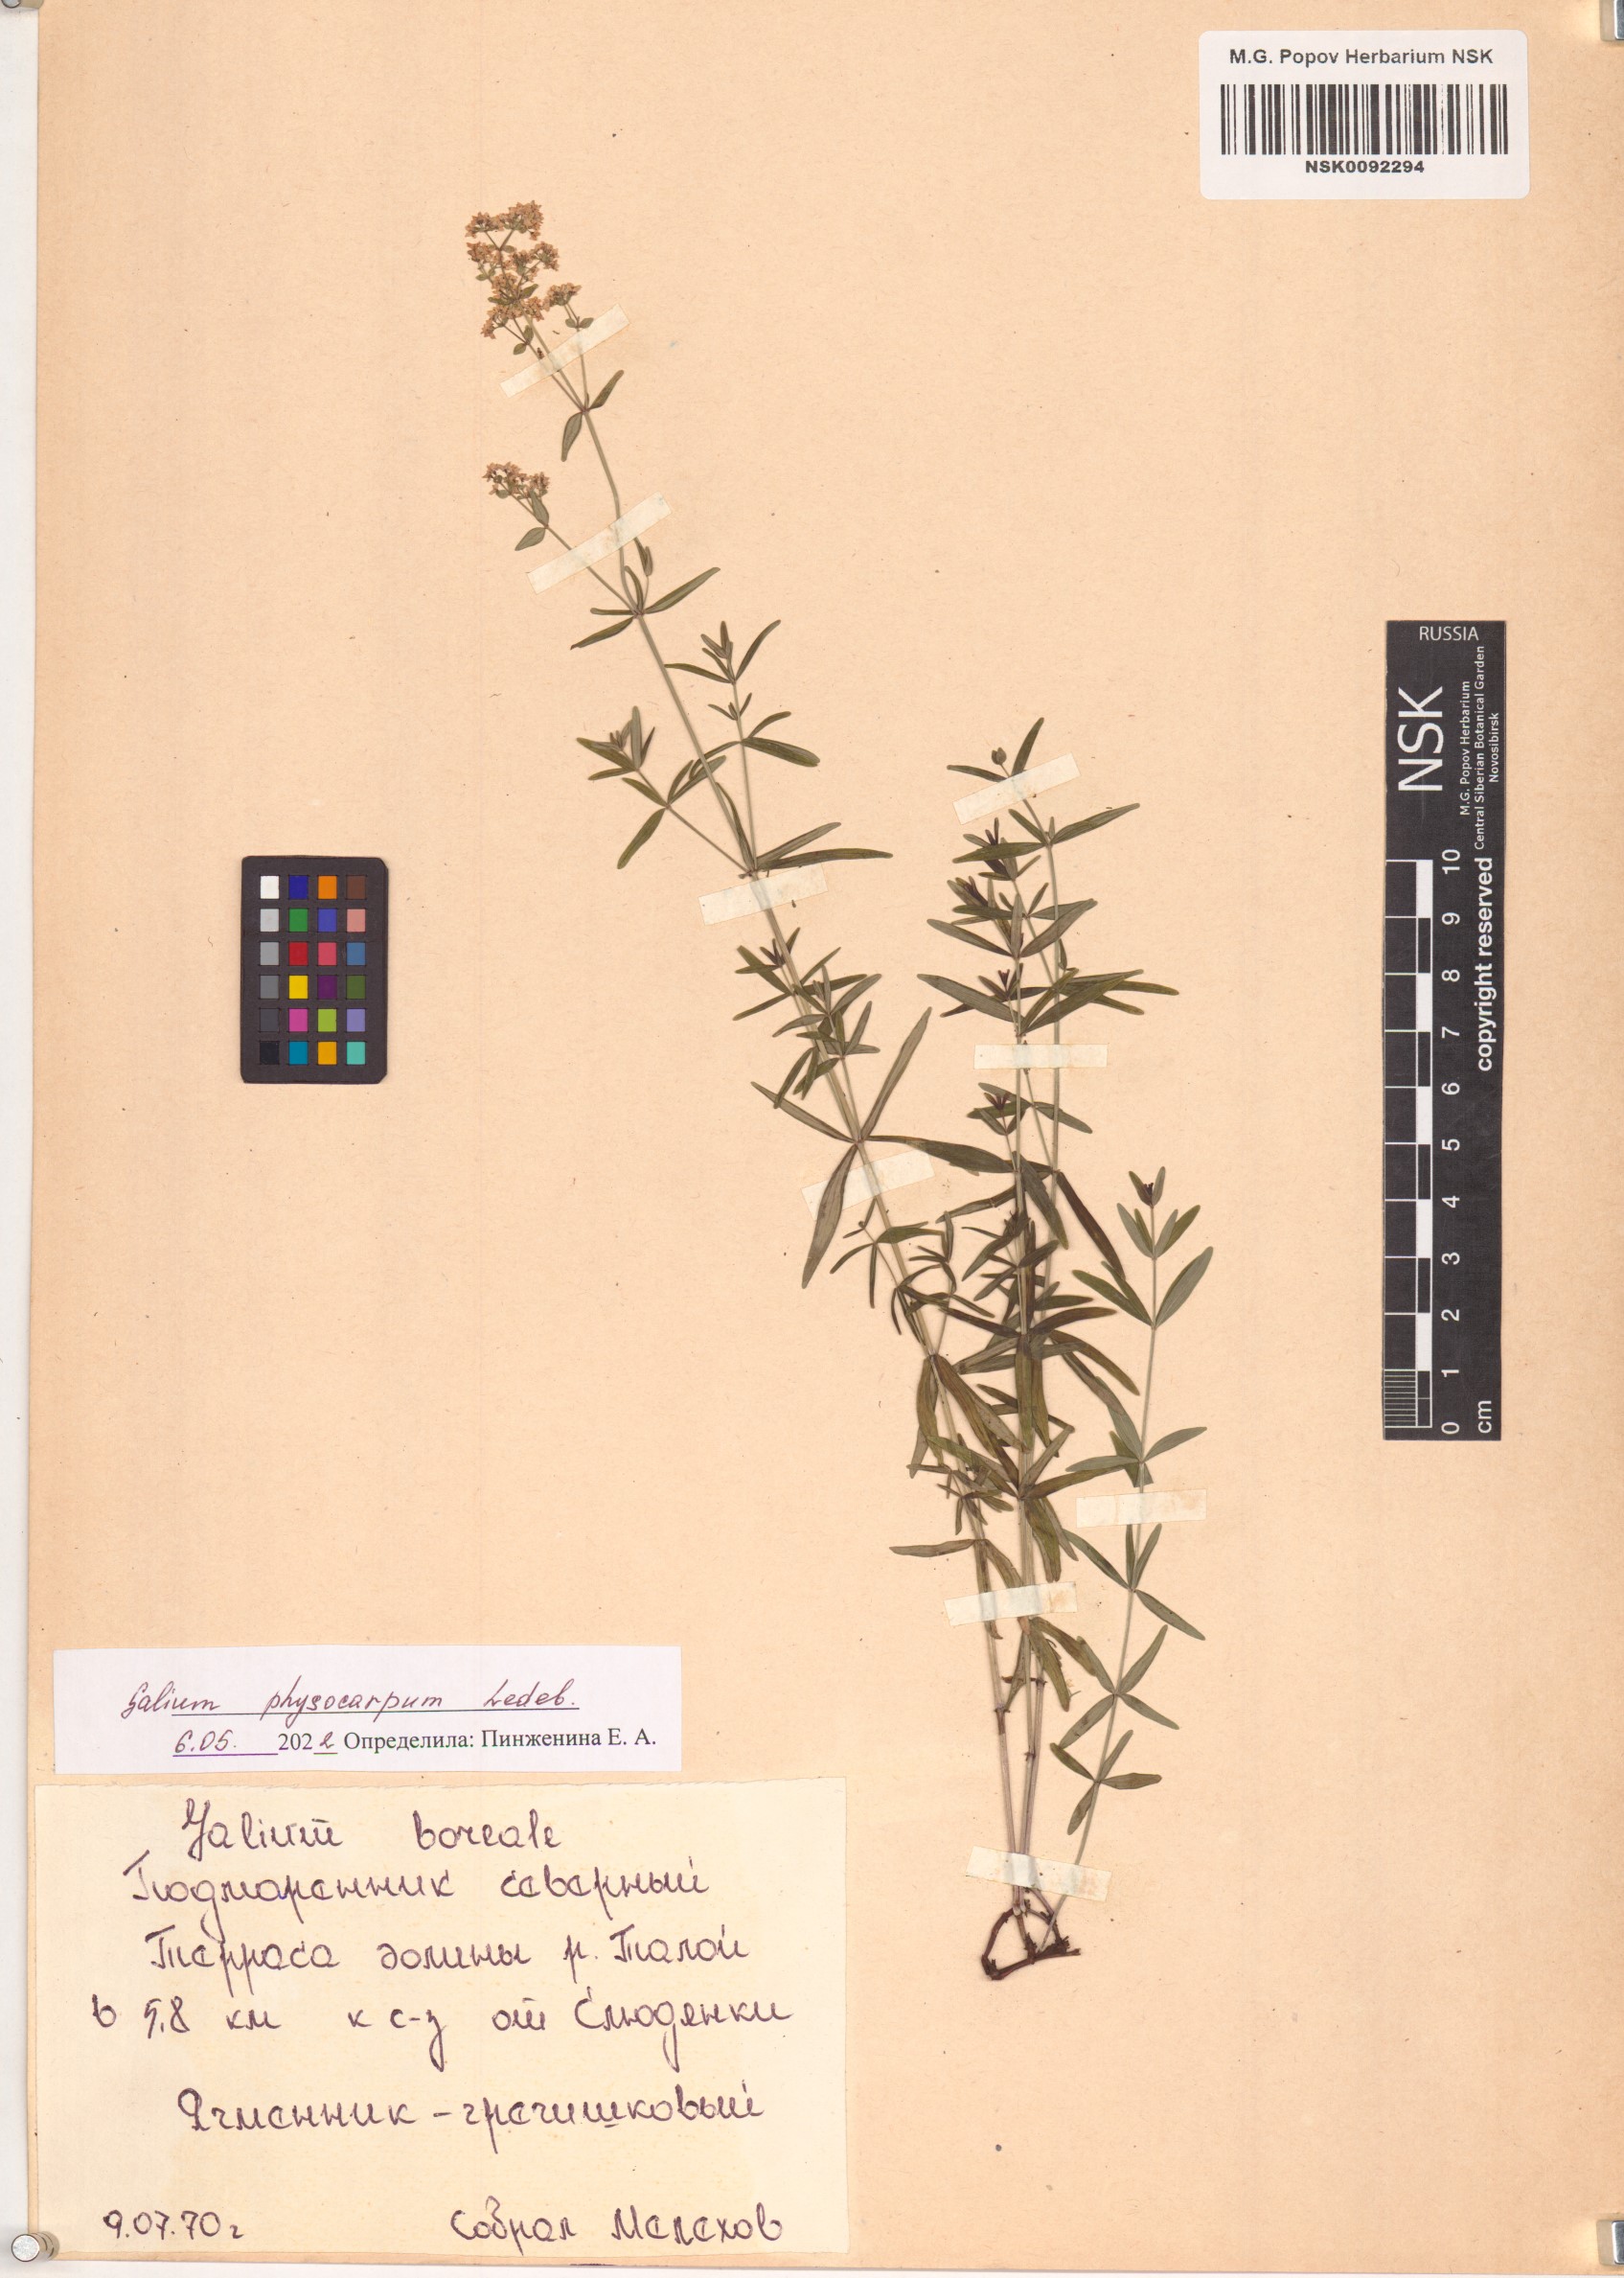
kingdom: Plantae
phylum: Tracheophyta
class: Magnoliopsida
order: Gentianales
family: Rubiaceae
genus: Galium
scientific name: Galium rubioides
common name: European bedstraw
